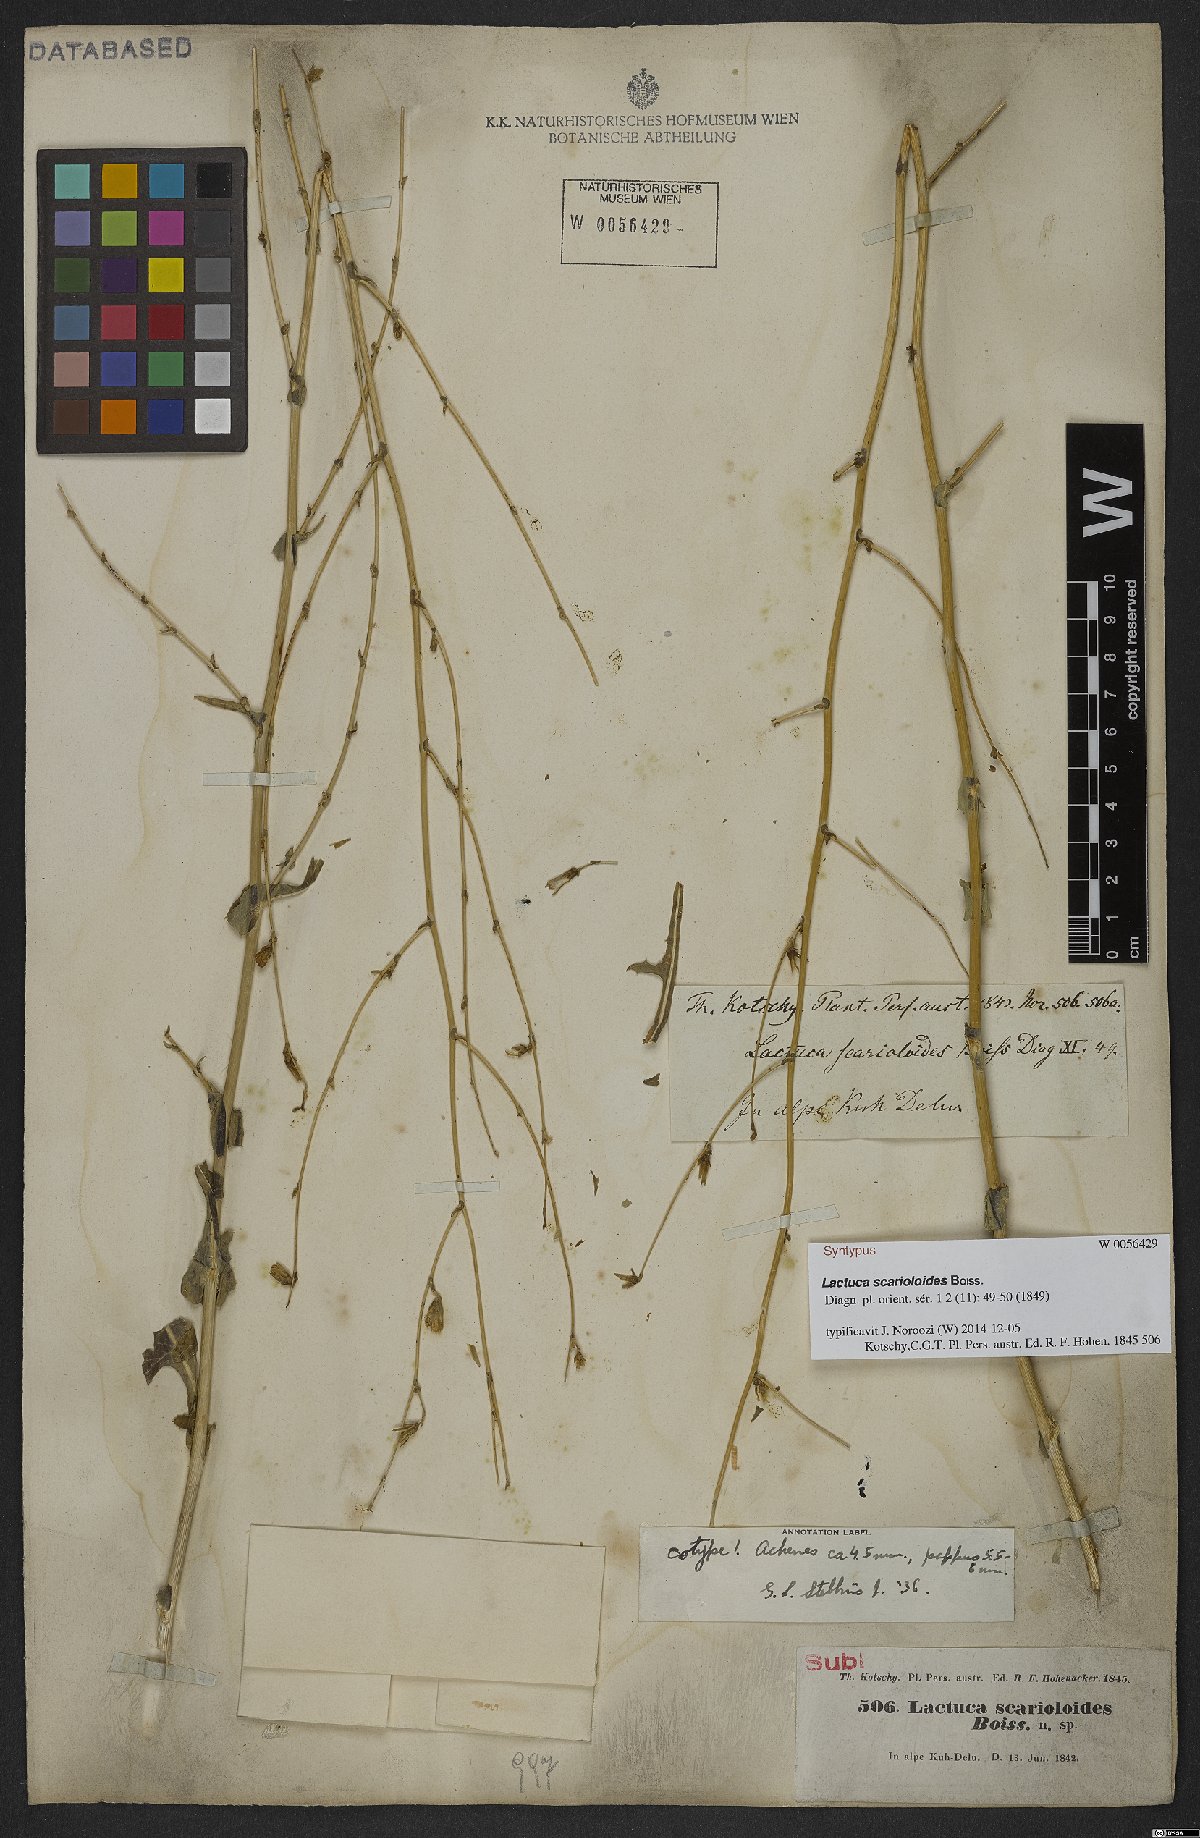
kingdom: Plantae
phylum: Tracheophyta
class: Magnoliopsida
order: Asterales
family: Asteraceae
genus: Lactuca
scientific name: Lactuca scarioloides
